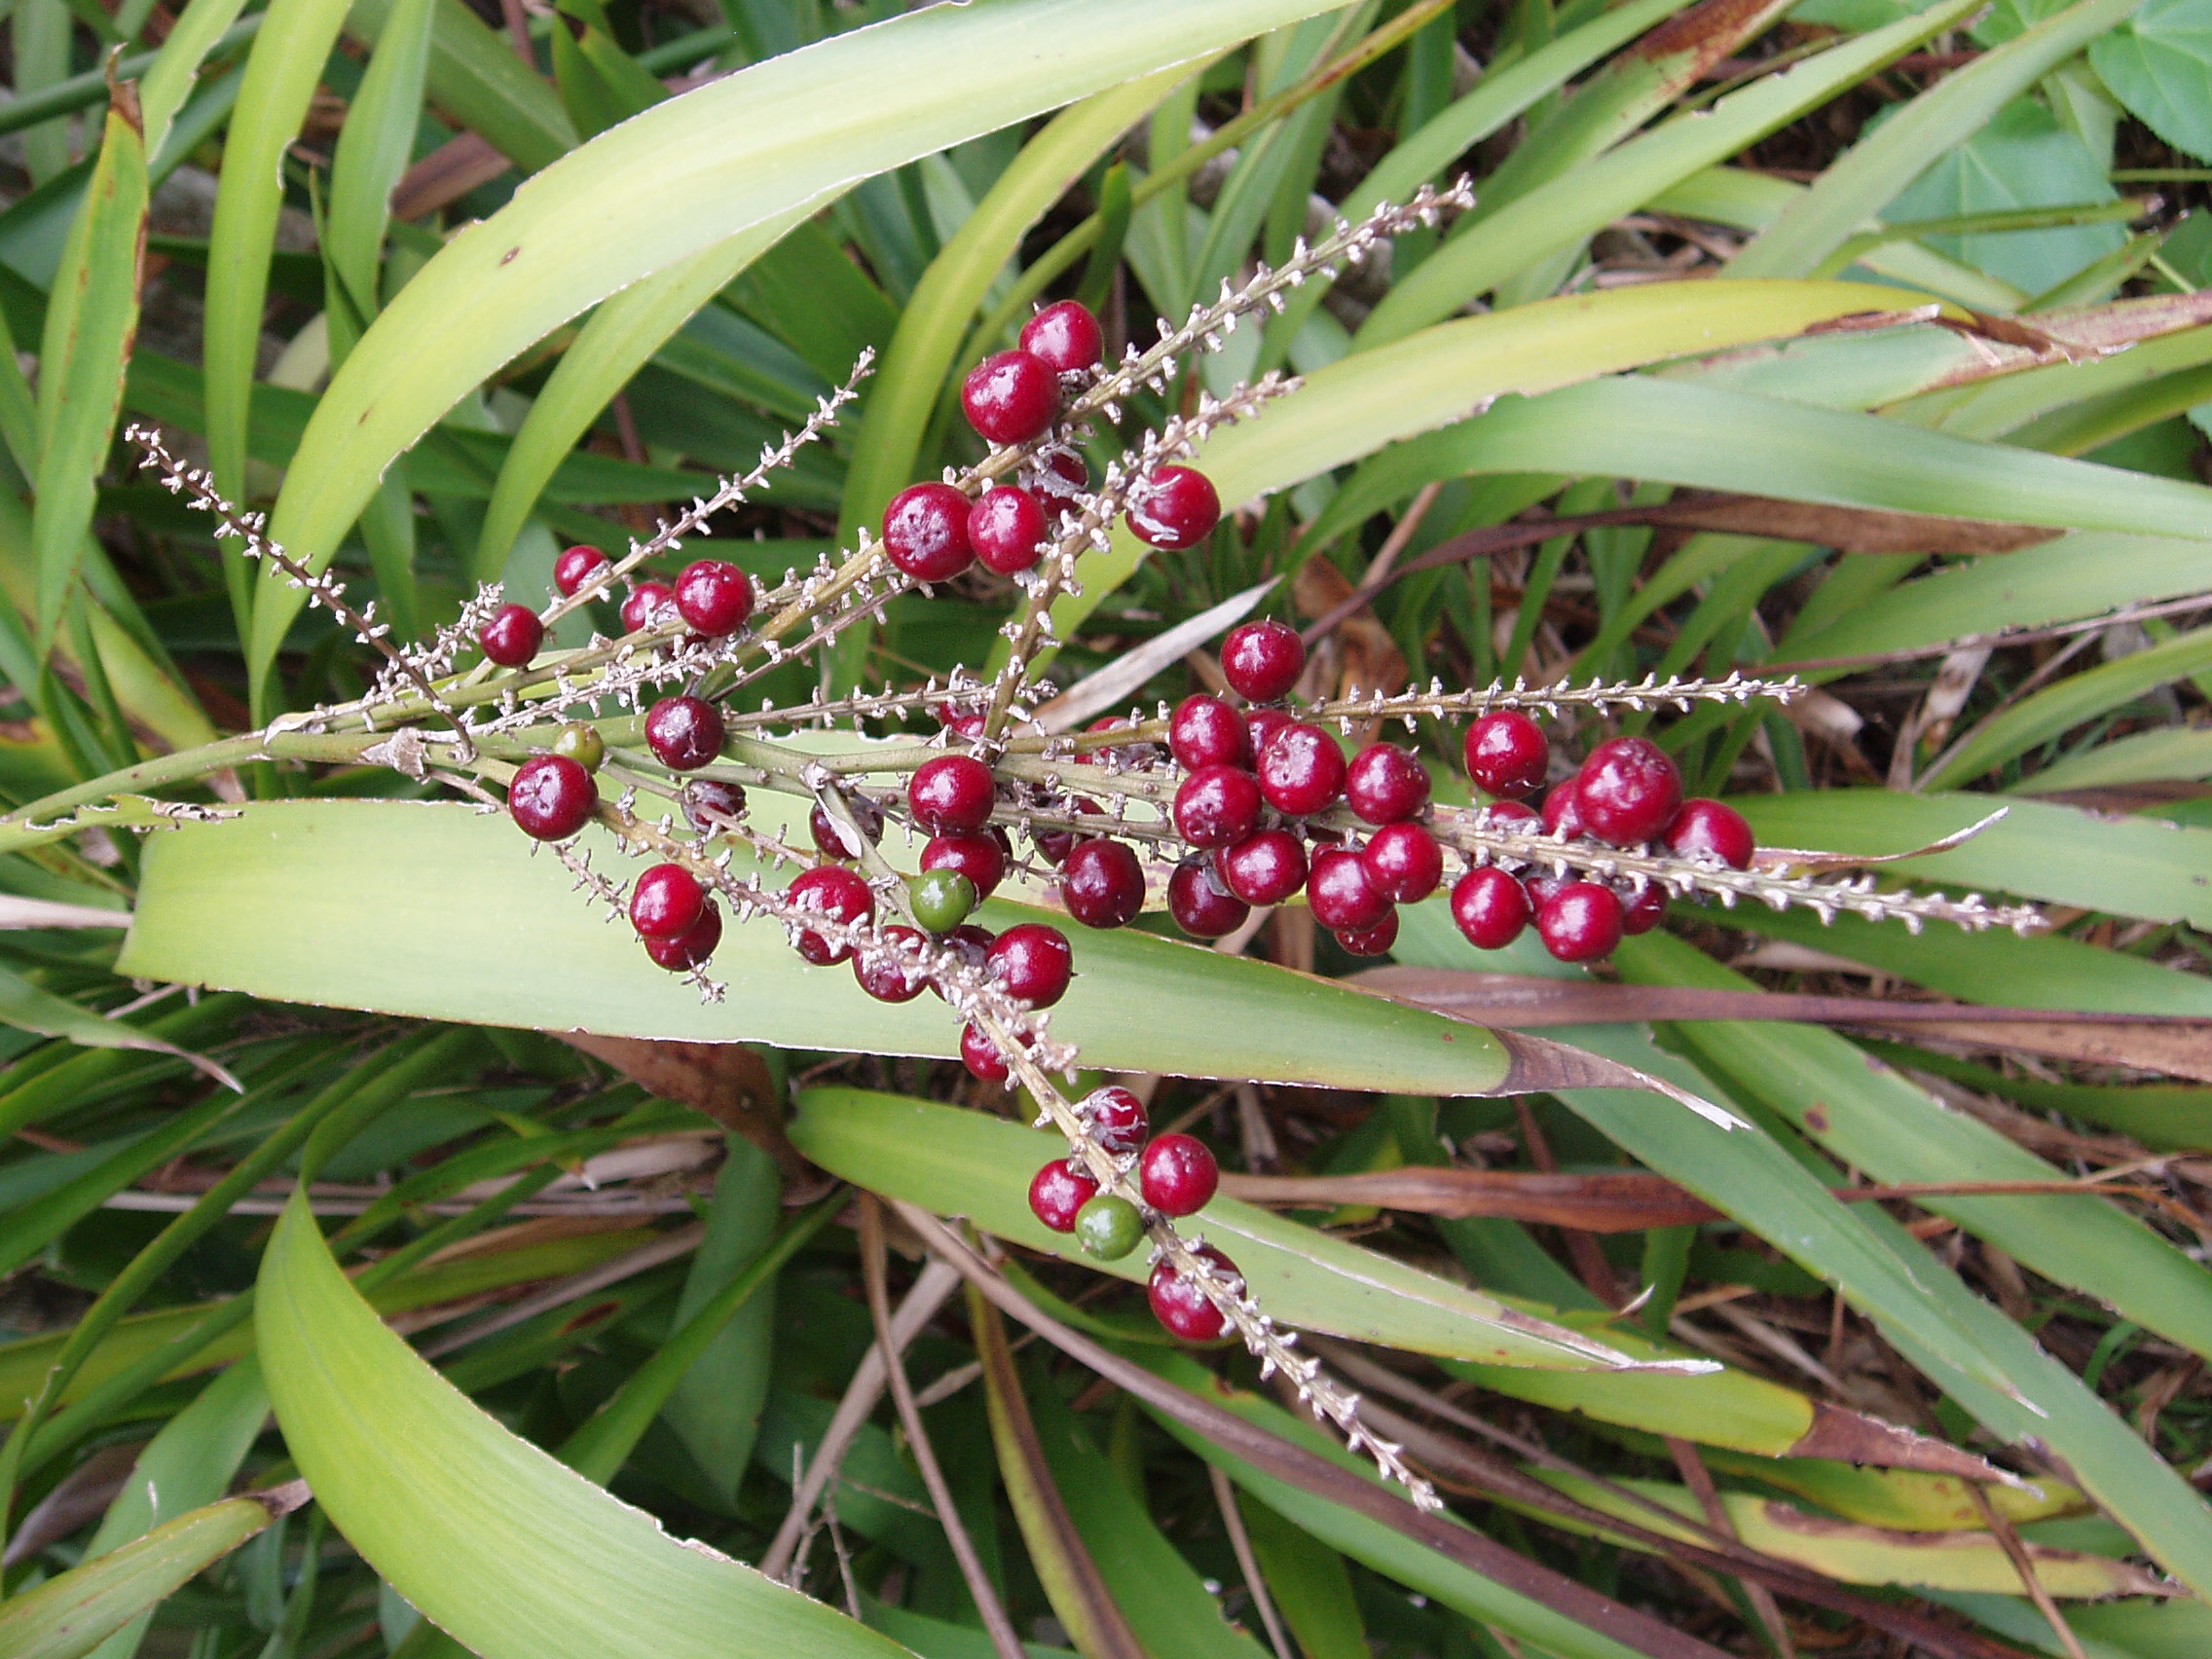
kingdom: Plantae
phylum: Tracheophyta
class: Liliopsida
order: Asparagales
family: Asparagaceae
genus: Cordyline
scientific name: Cordyline rubra
